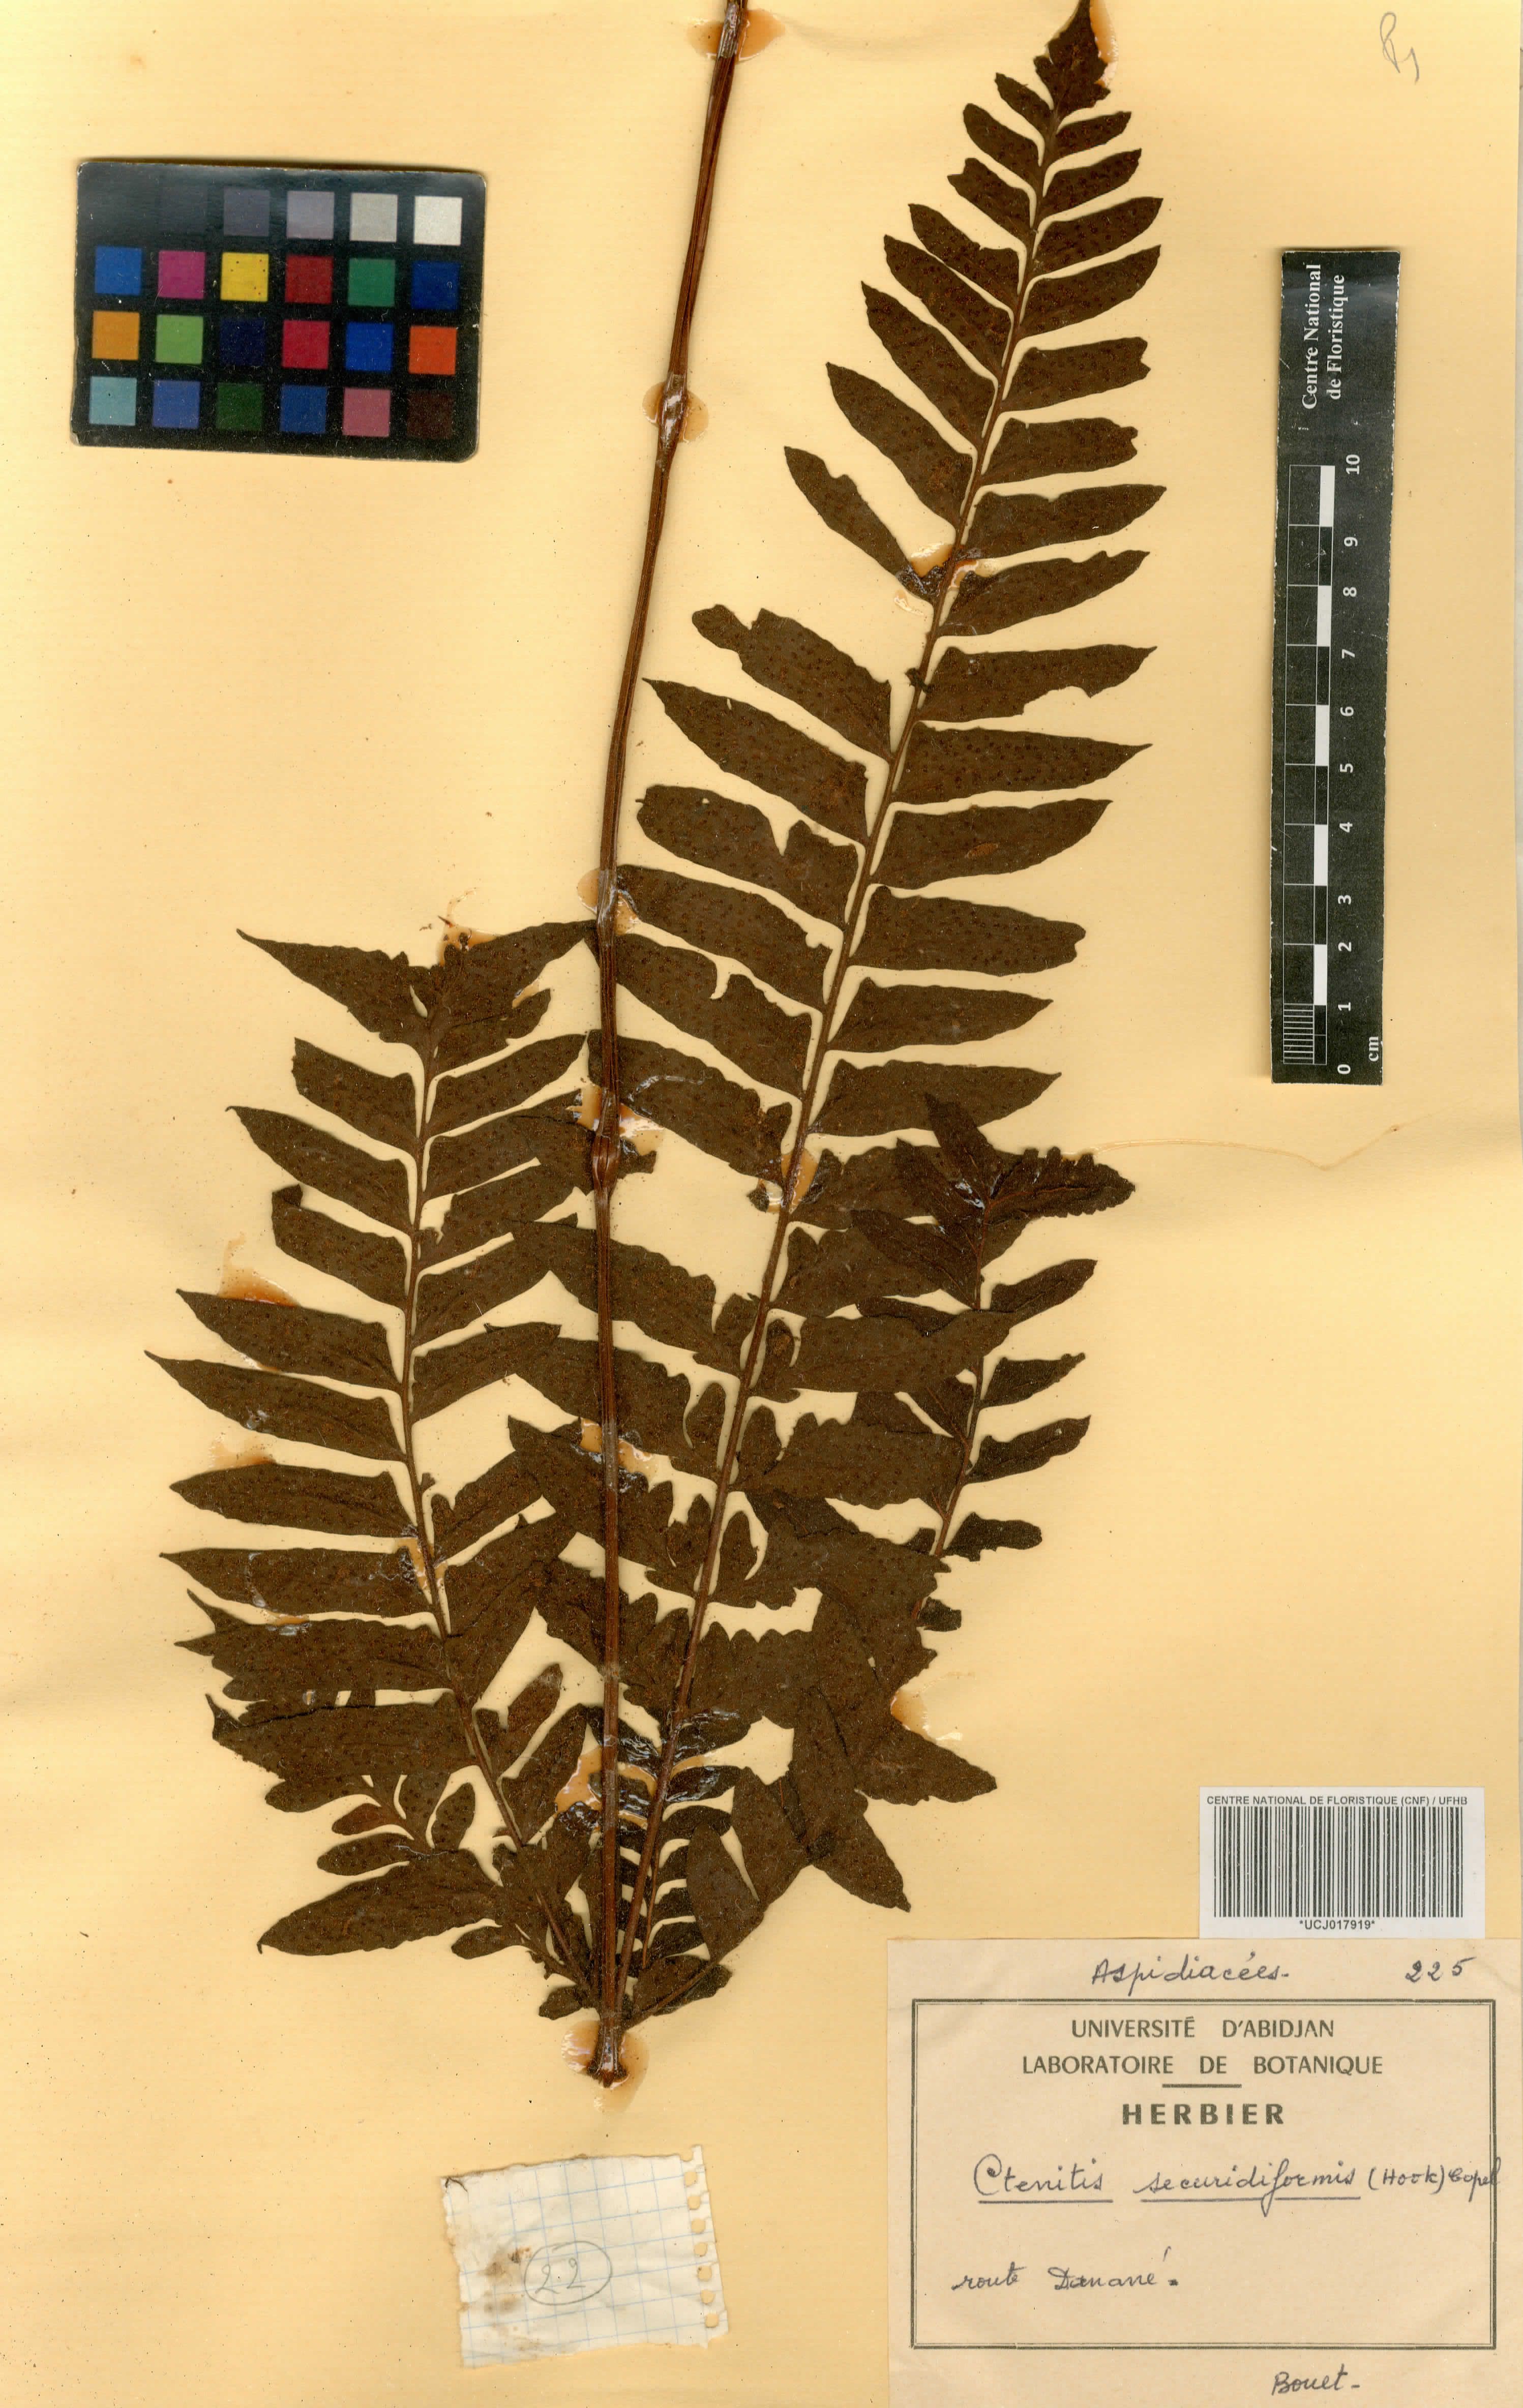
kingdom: Plantae
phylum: Tracheophyta
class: Polypodiopsida
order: Polypodiales
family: Tectariaceae
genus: Triplophyllum
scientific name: Triplophyllum securidiforme
